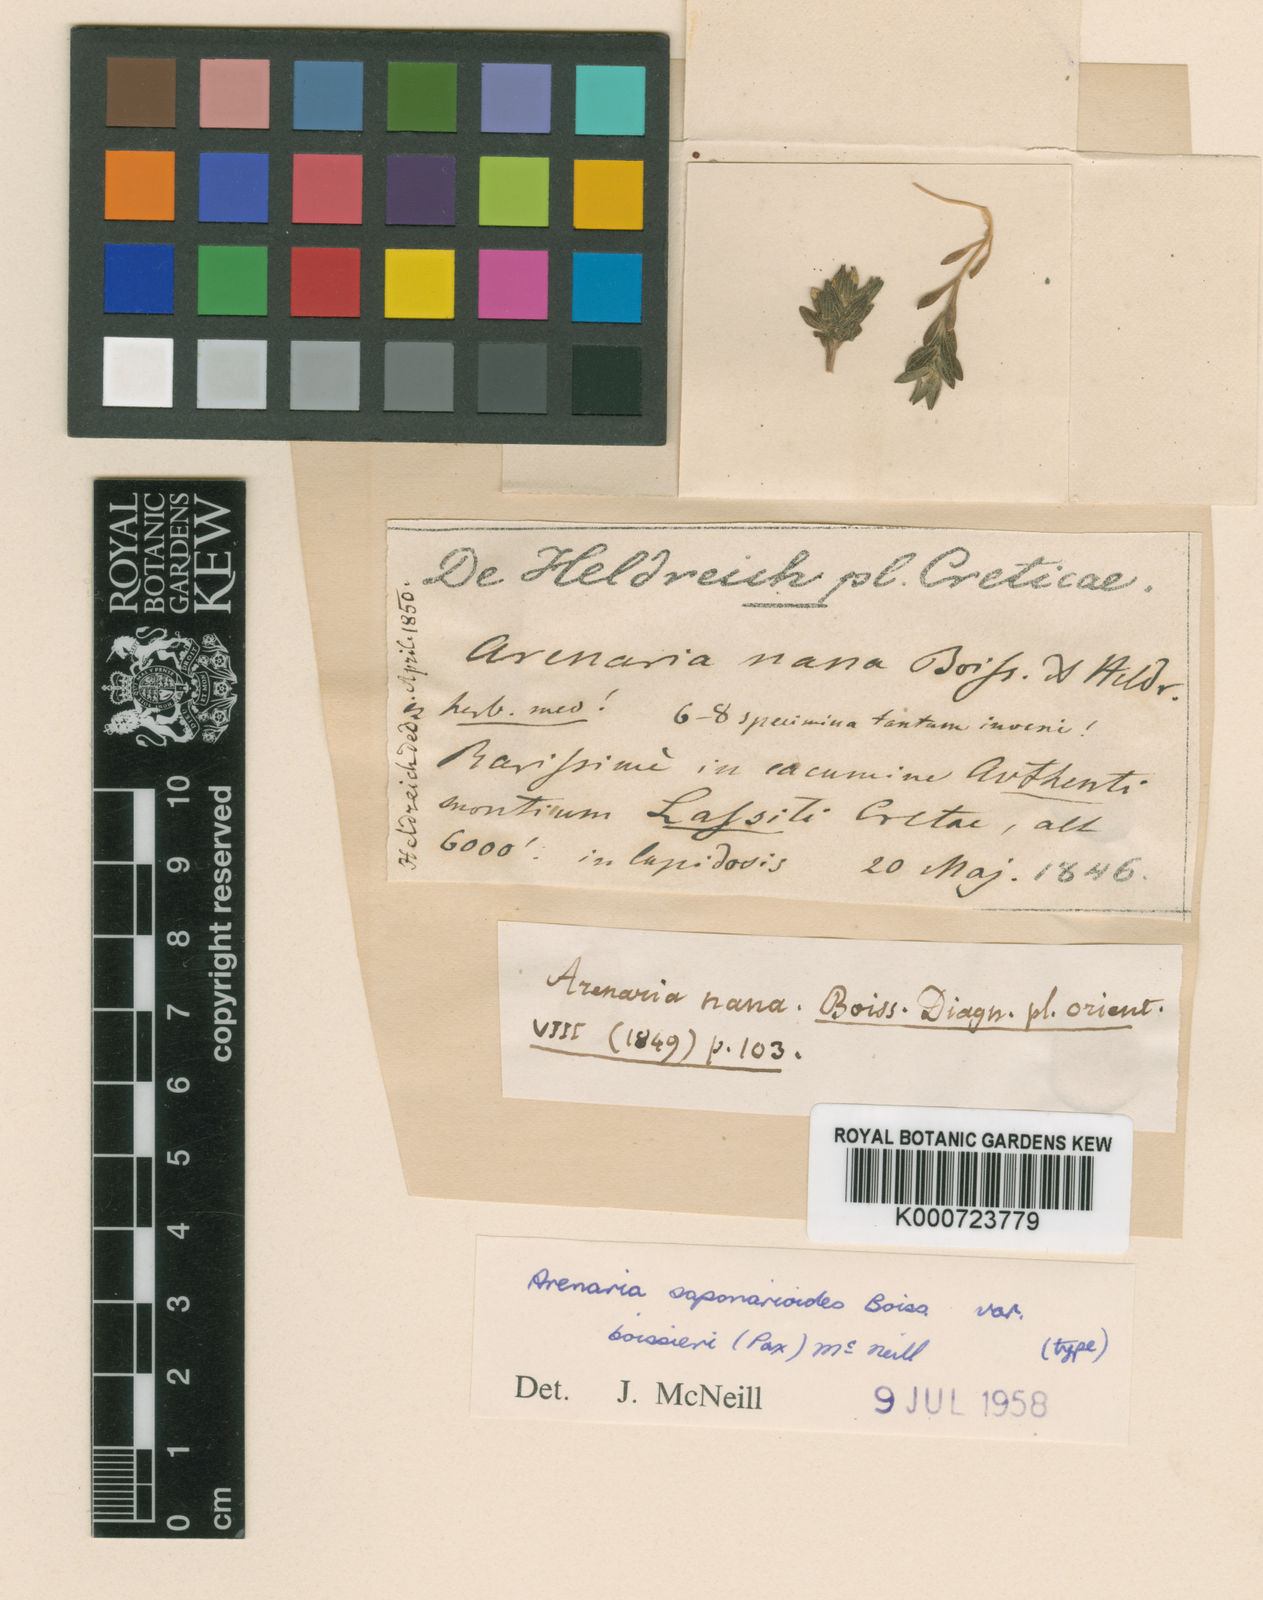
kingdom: Plantae
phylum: Tracheophyta
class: Magnoliopsida
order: Caryophyllales
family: Caryophyllaceae
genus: Arenaria
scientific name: Arenaria saponarioides
